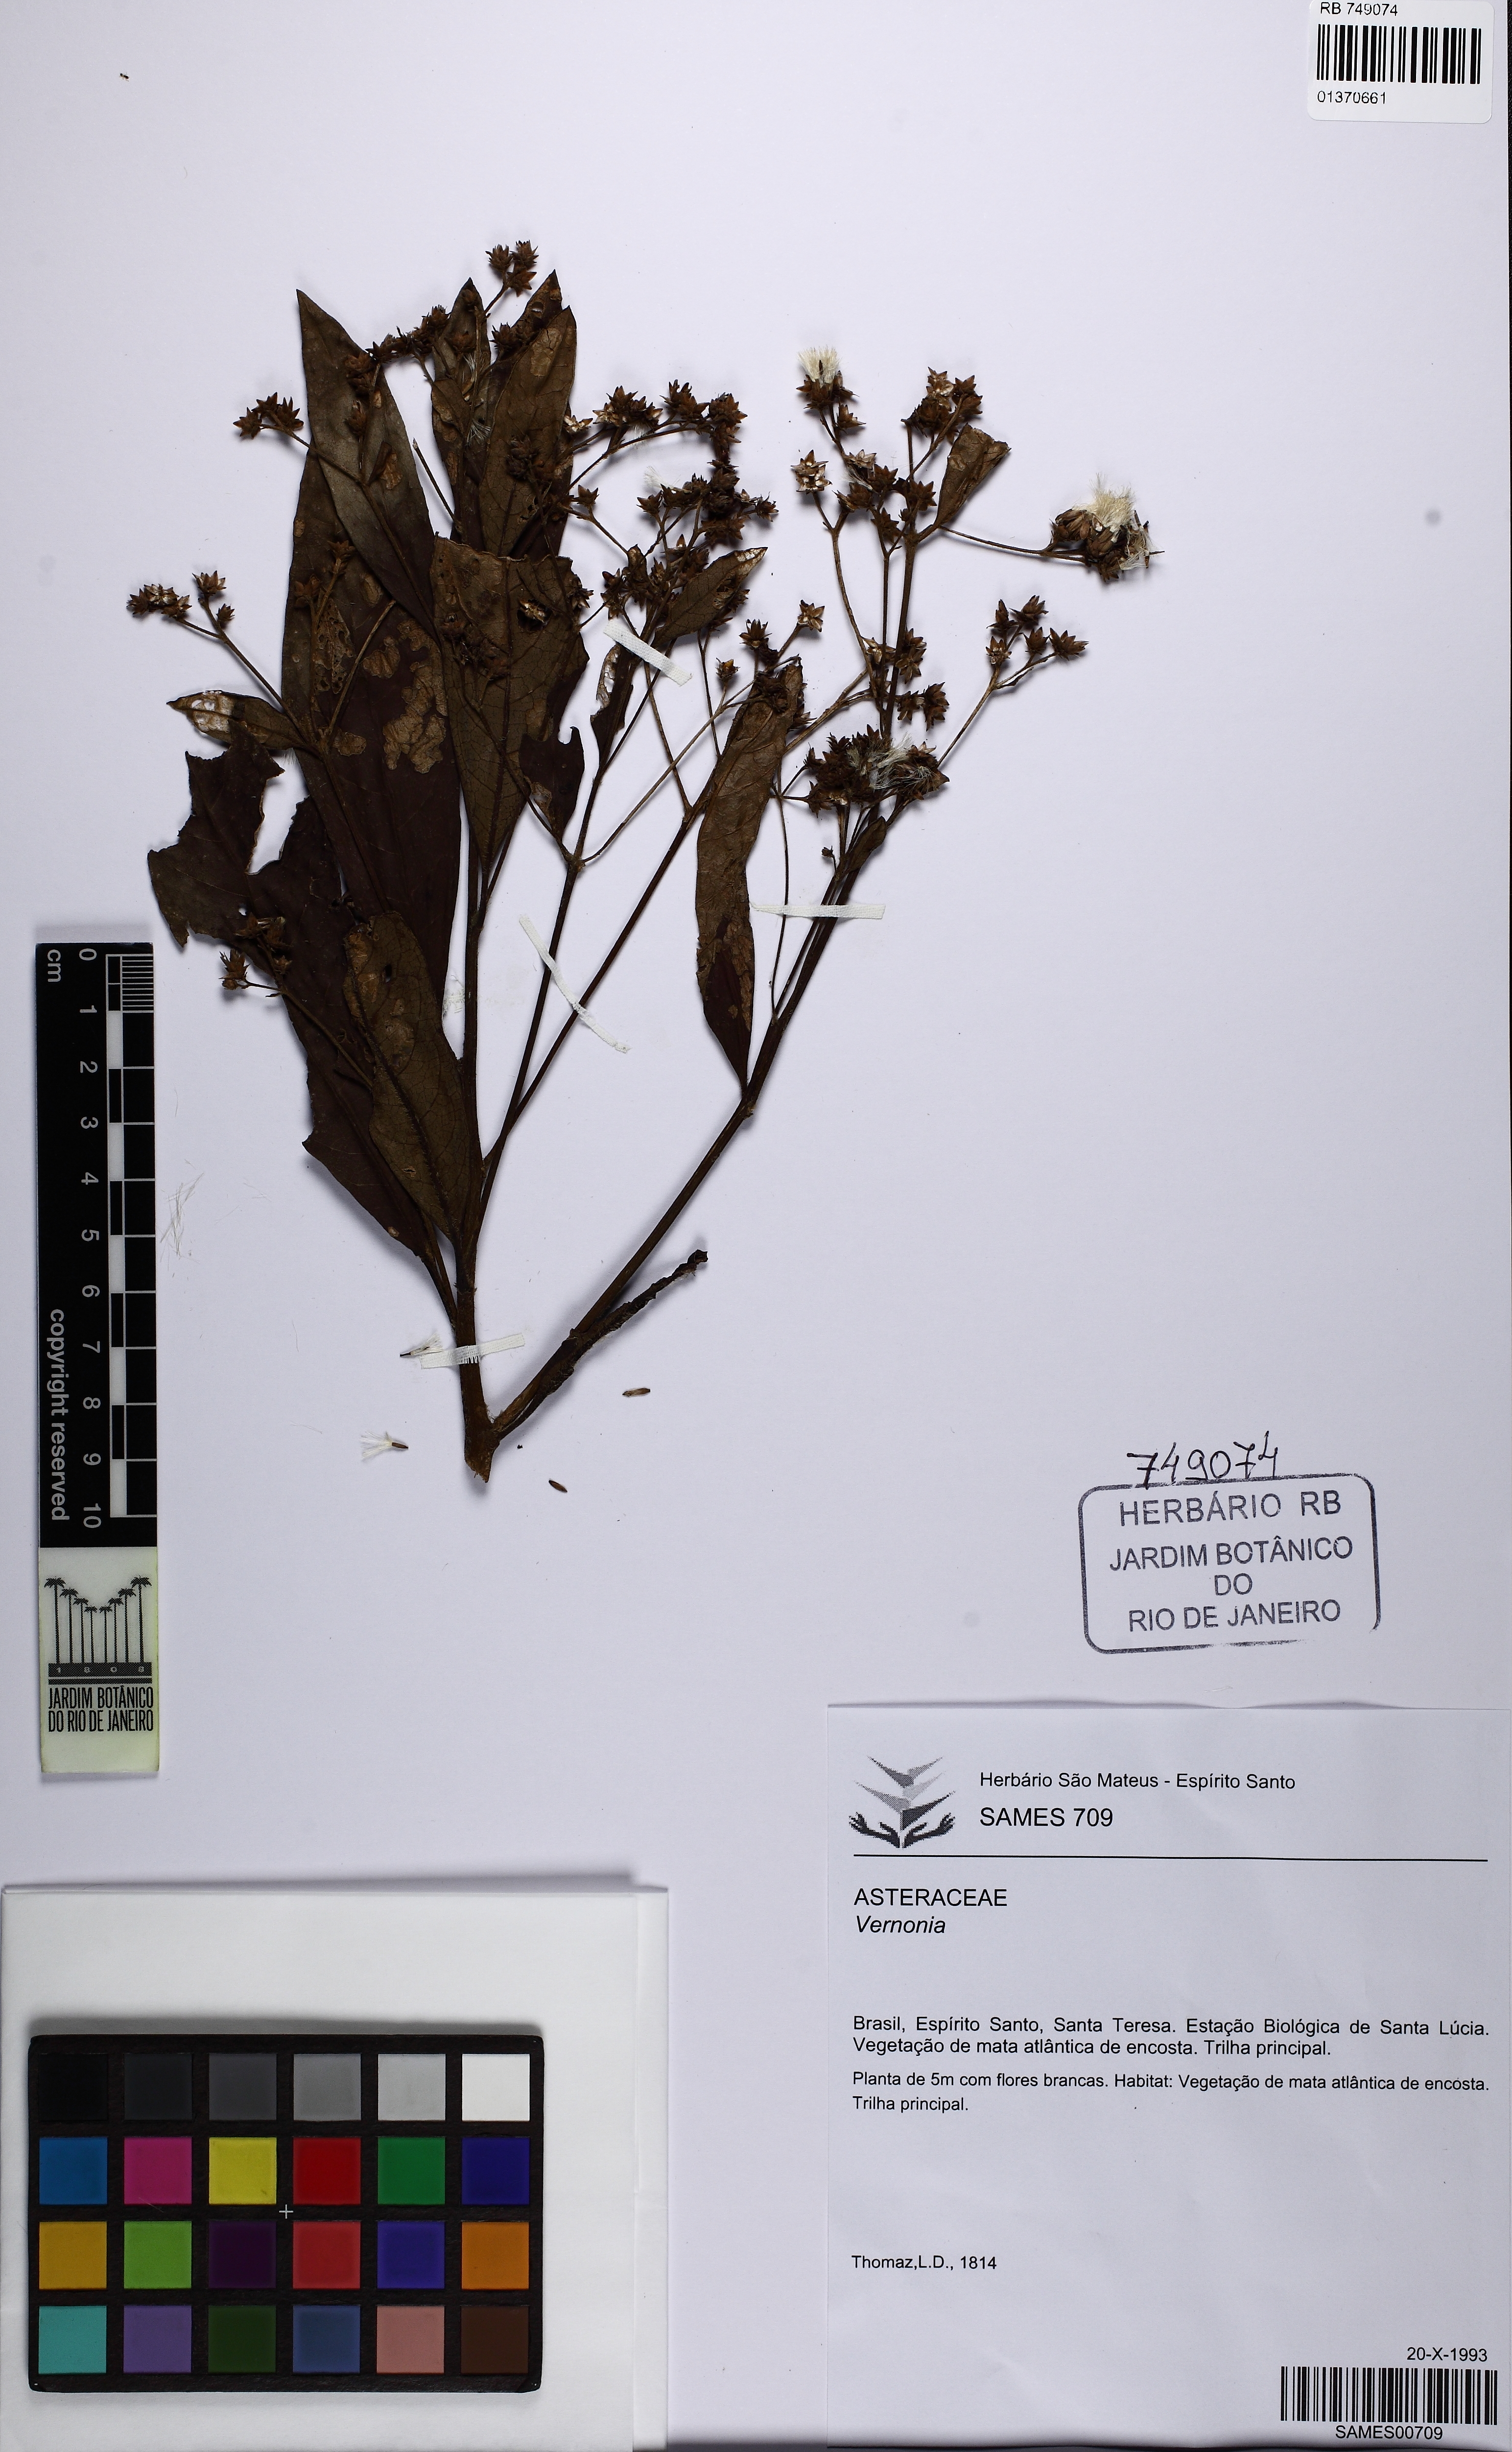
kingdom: Plantae
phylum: Tracheophyta
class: Magnoliopsida
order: Asterales
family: Asteraceae
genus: Vernonia
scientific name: Vernonia
